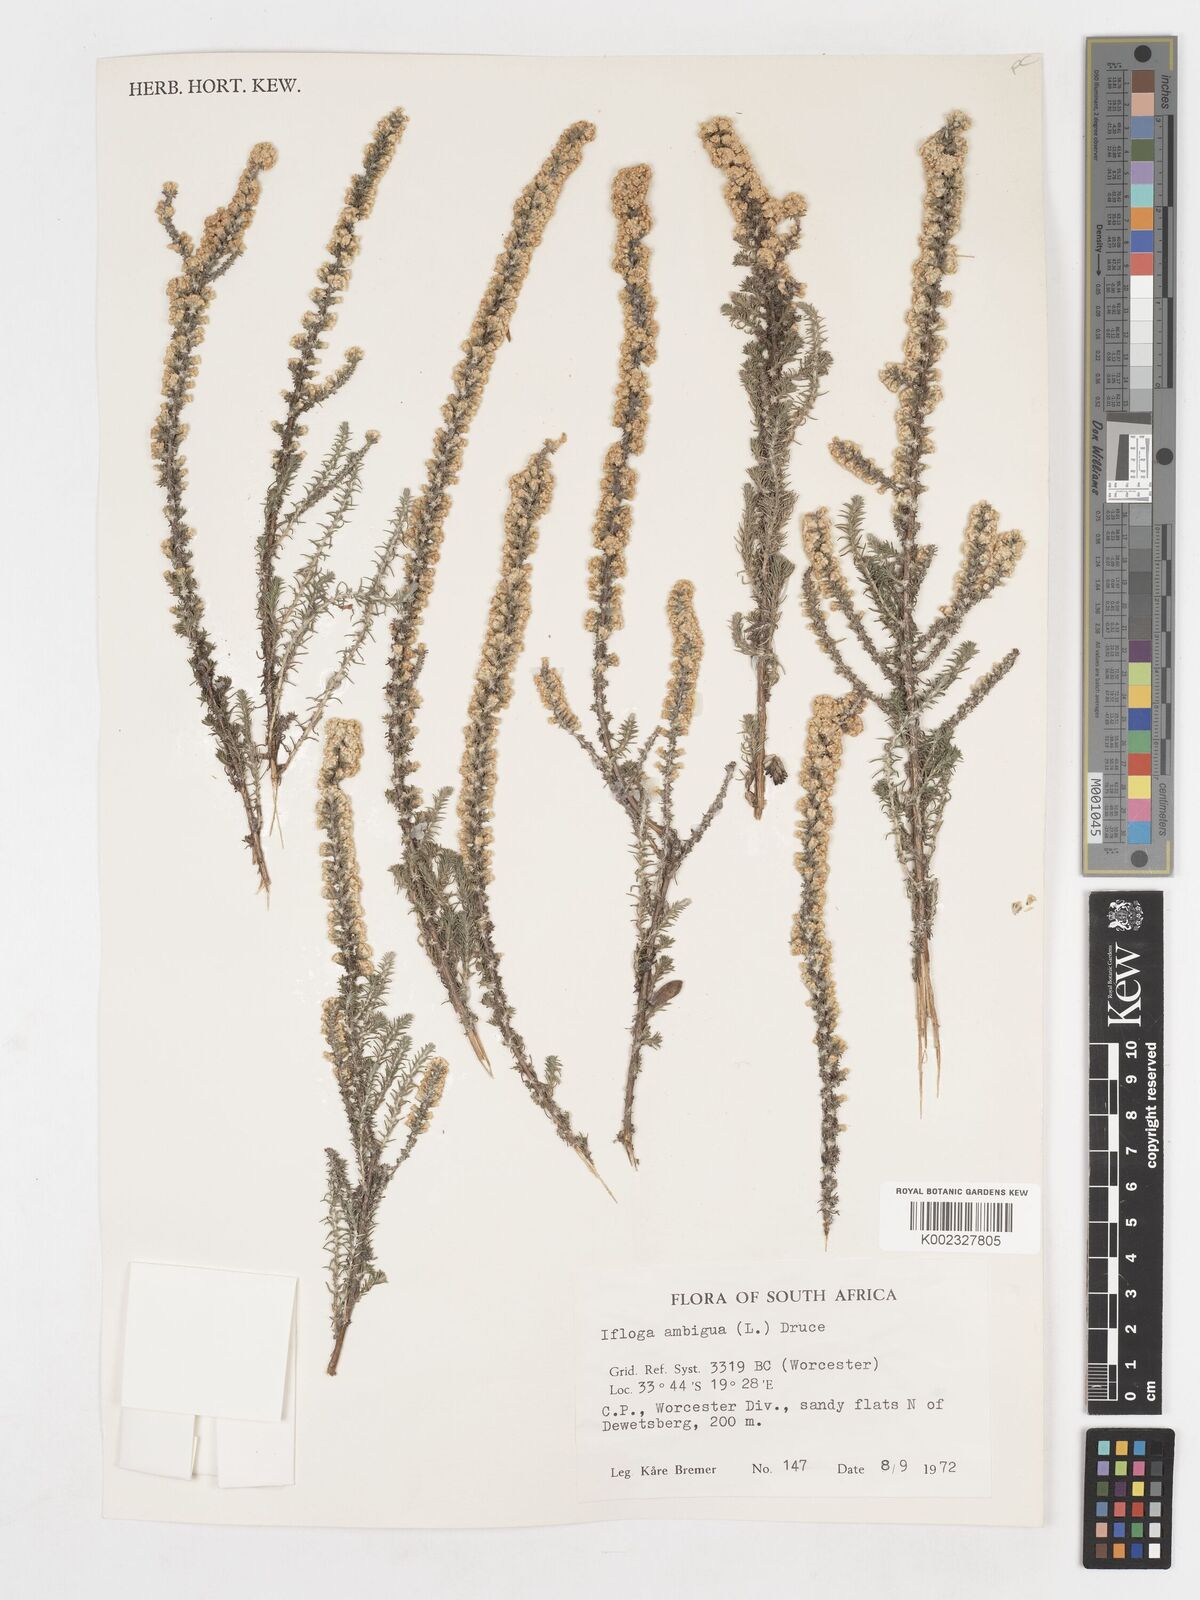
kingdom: Plantae
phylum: Tracheophyta
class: Magnoliopsida
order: Asterales
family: Asteraceae
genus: Ifloga
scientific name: Ifloga ambigua
